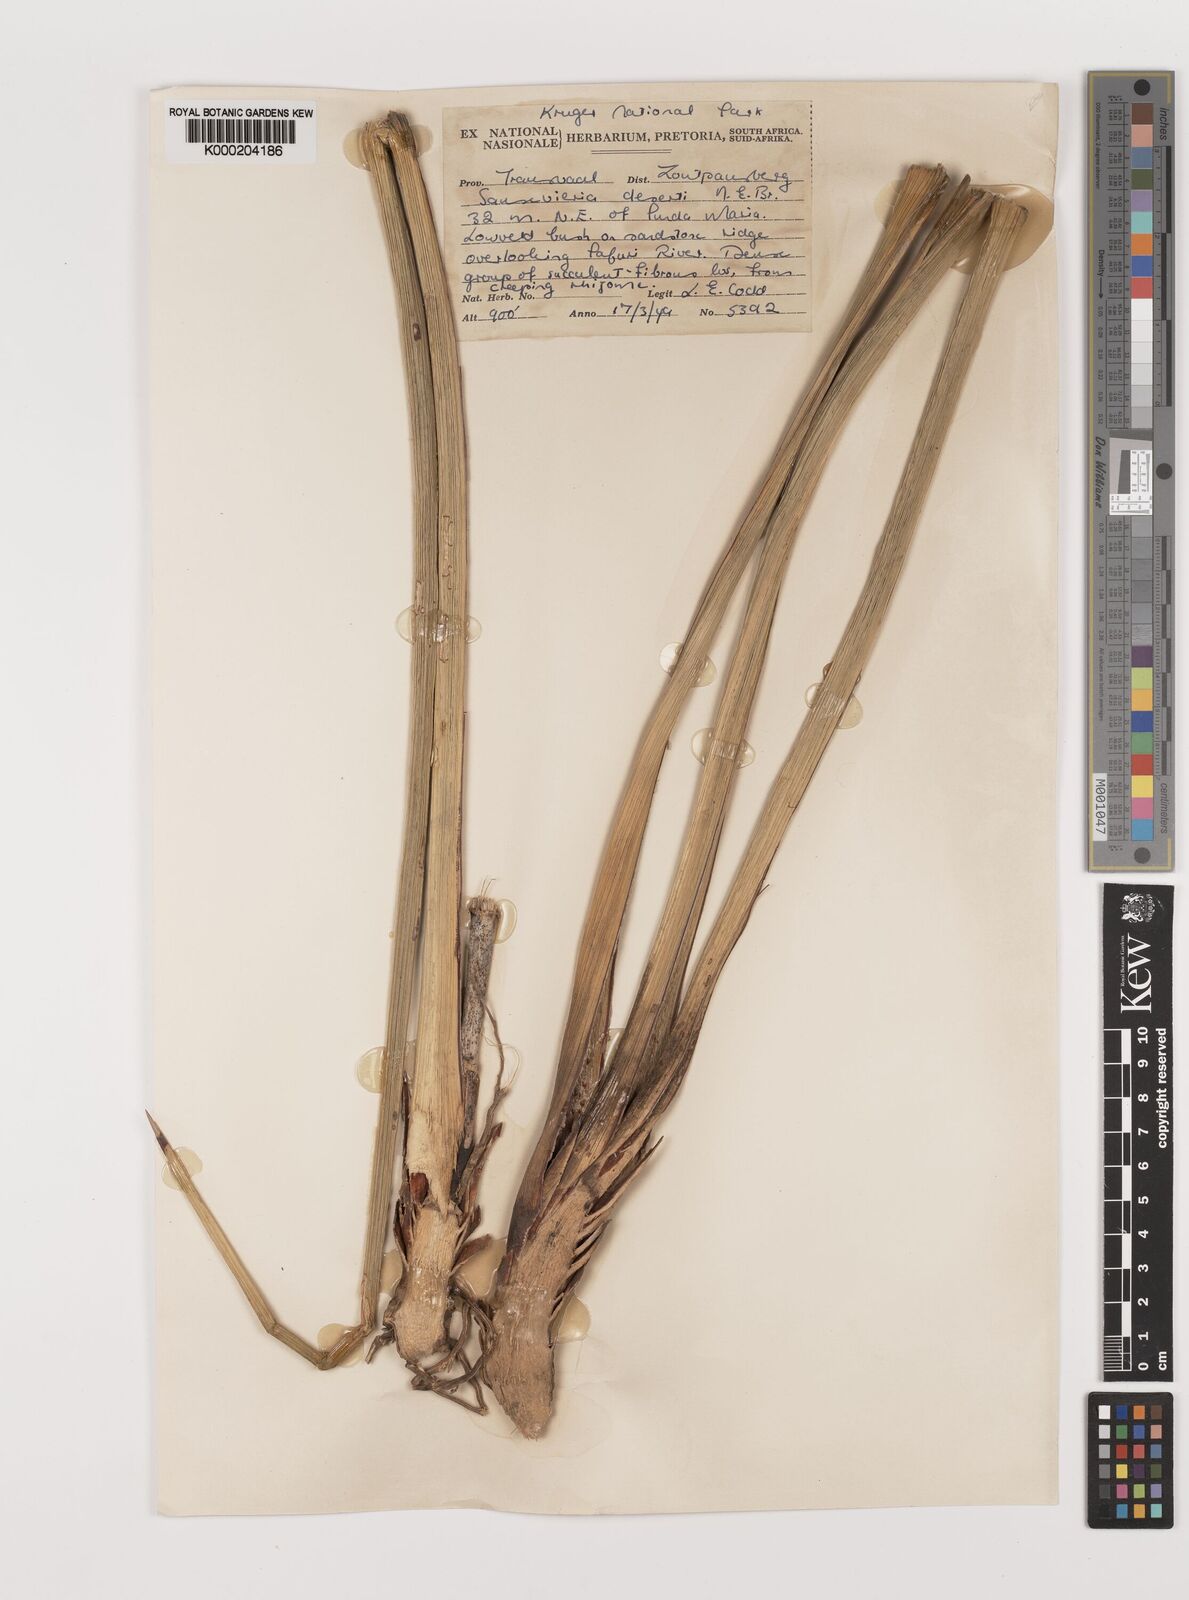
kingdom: Plantae
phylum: Tracheophyta
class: Liliopsida
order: Asparagales
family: Asparagaceae
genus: Dracaena
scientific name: Dracaena pearsonii
